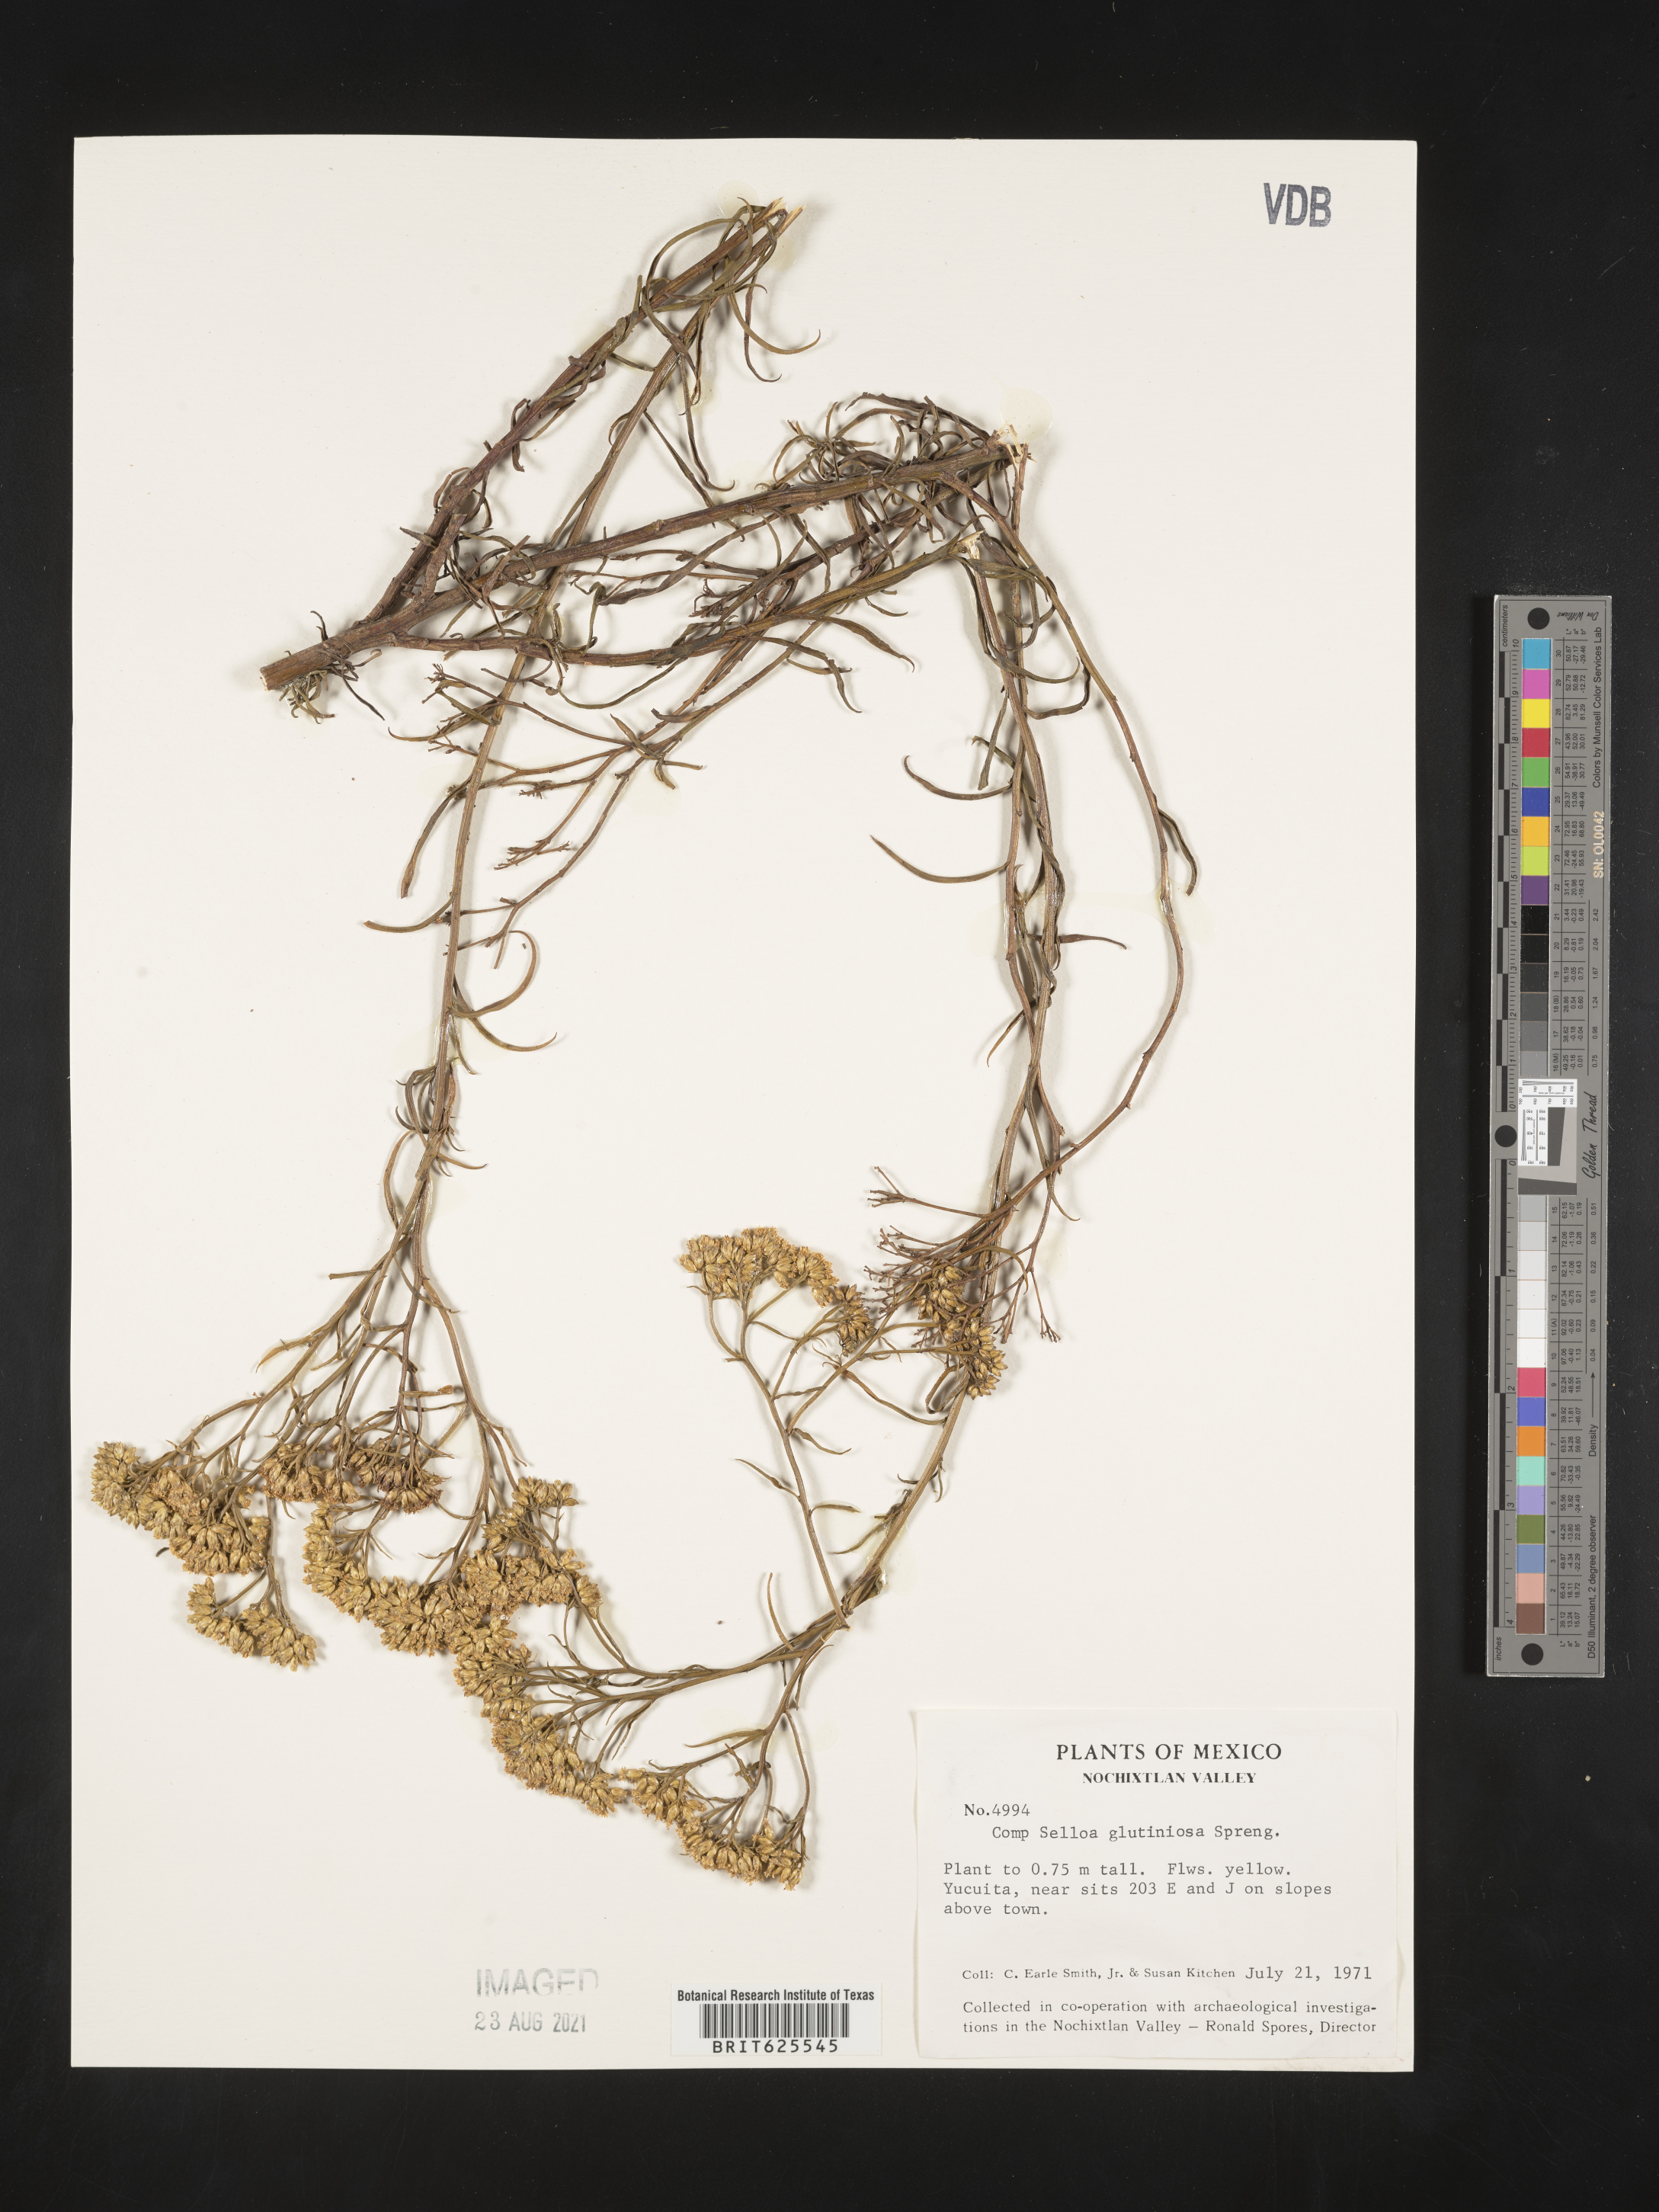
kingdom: Plantae
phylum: Tracheophyta
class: Magnoliopsida
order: Asterales
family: Asteraceae
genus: Gymnosperma
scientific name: Gymnosperma
